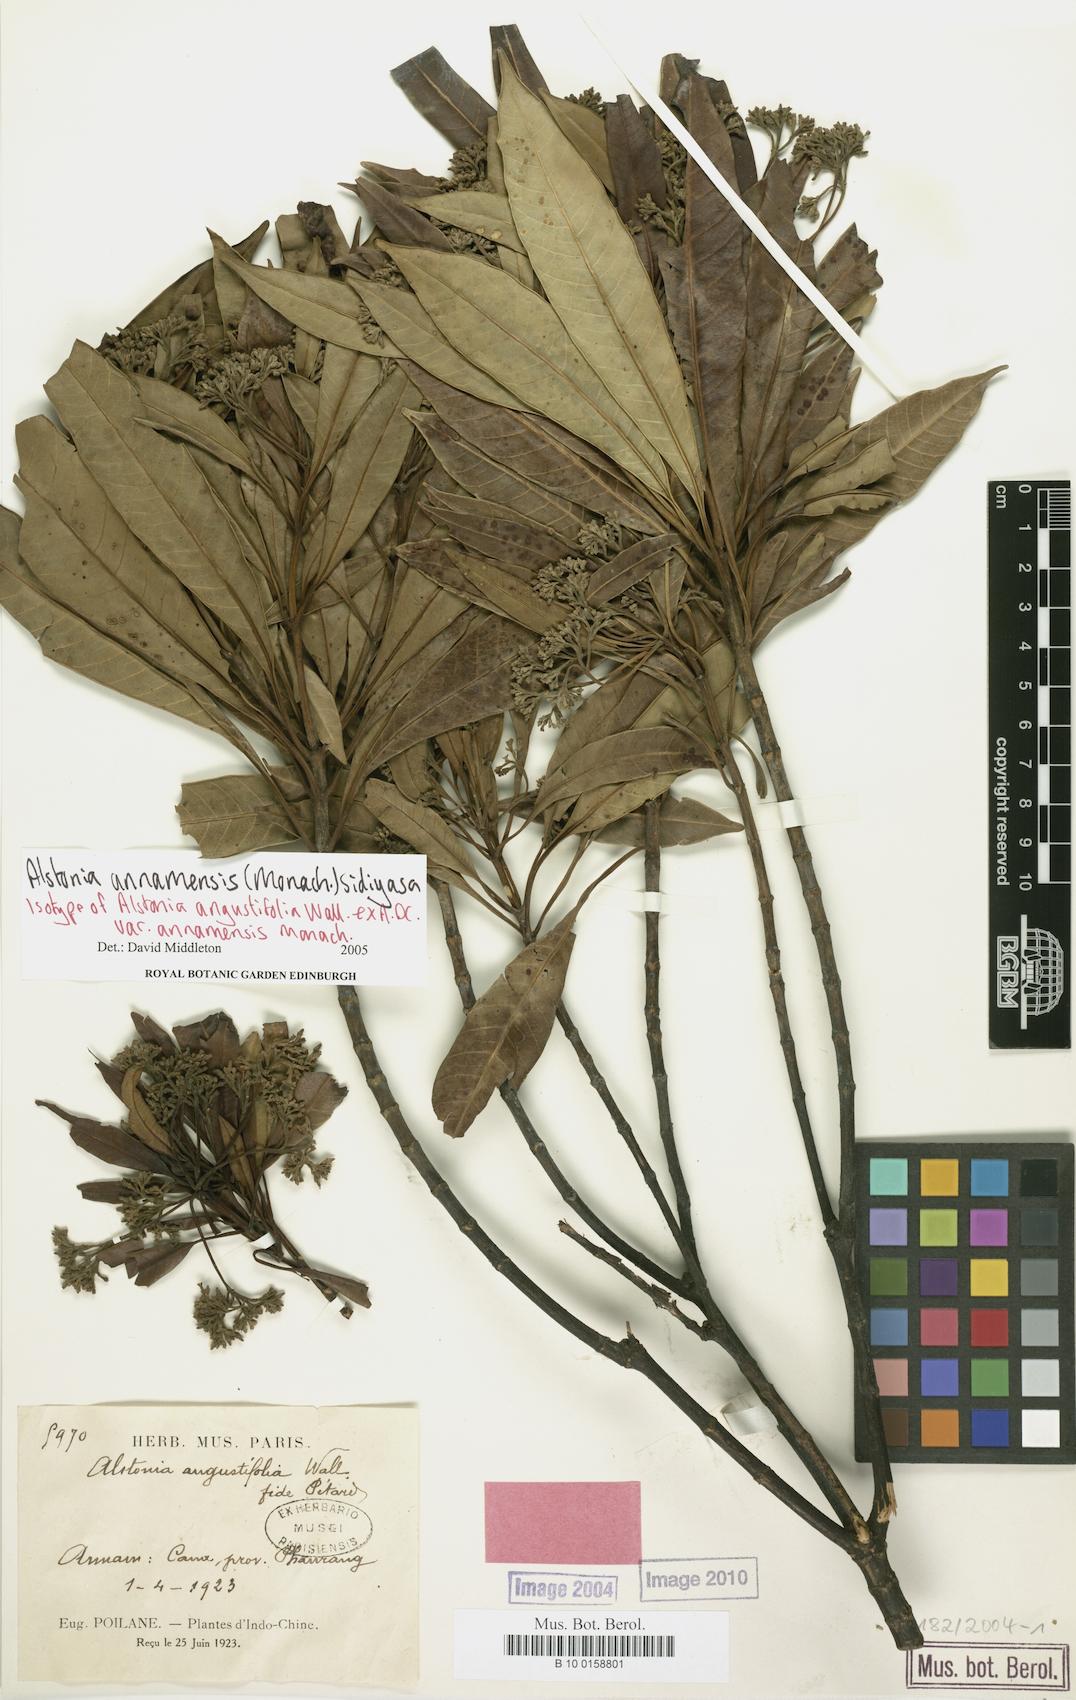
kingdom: Plantae
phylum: Tracheophyta
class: Magnoliopsida
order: Gentianales
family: Apocynaceae
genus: Alstonia
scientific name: Alstonia annamensis
